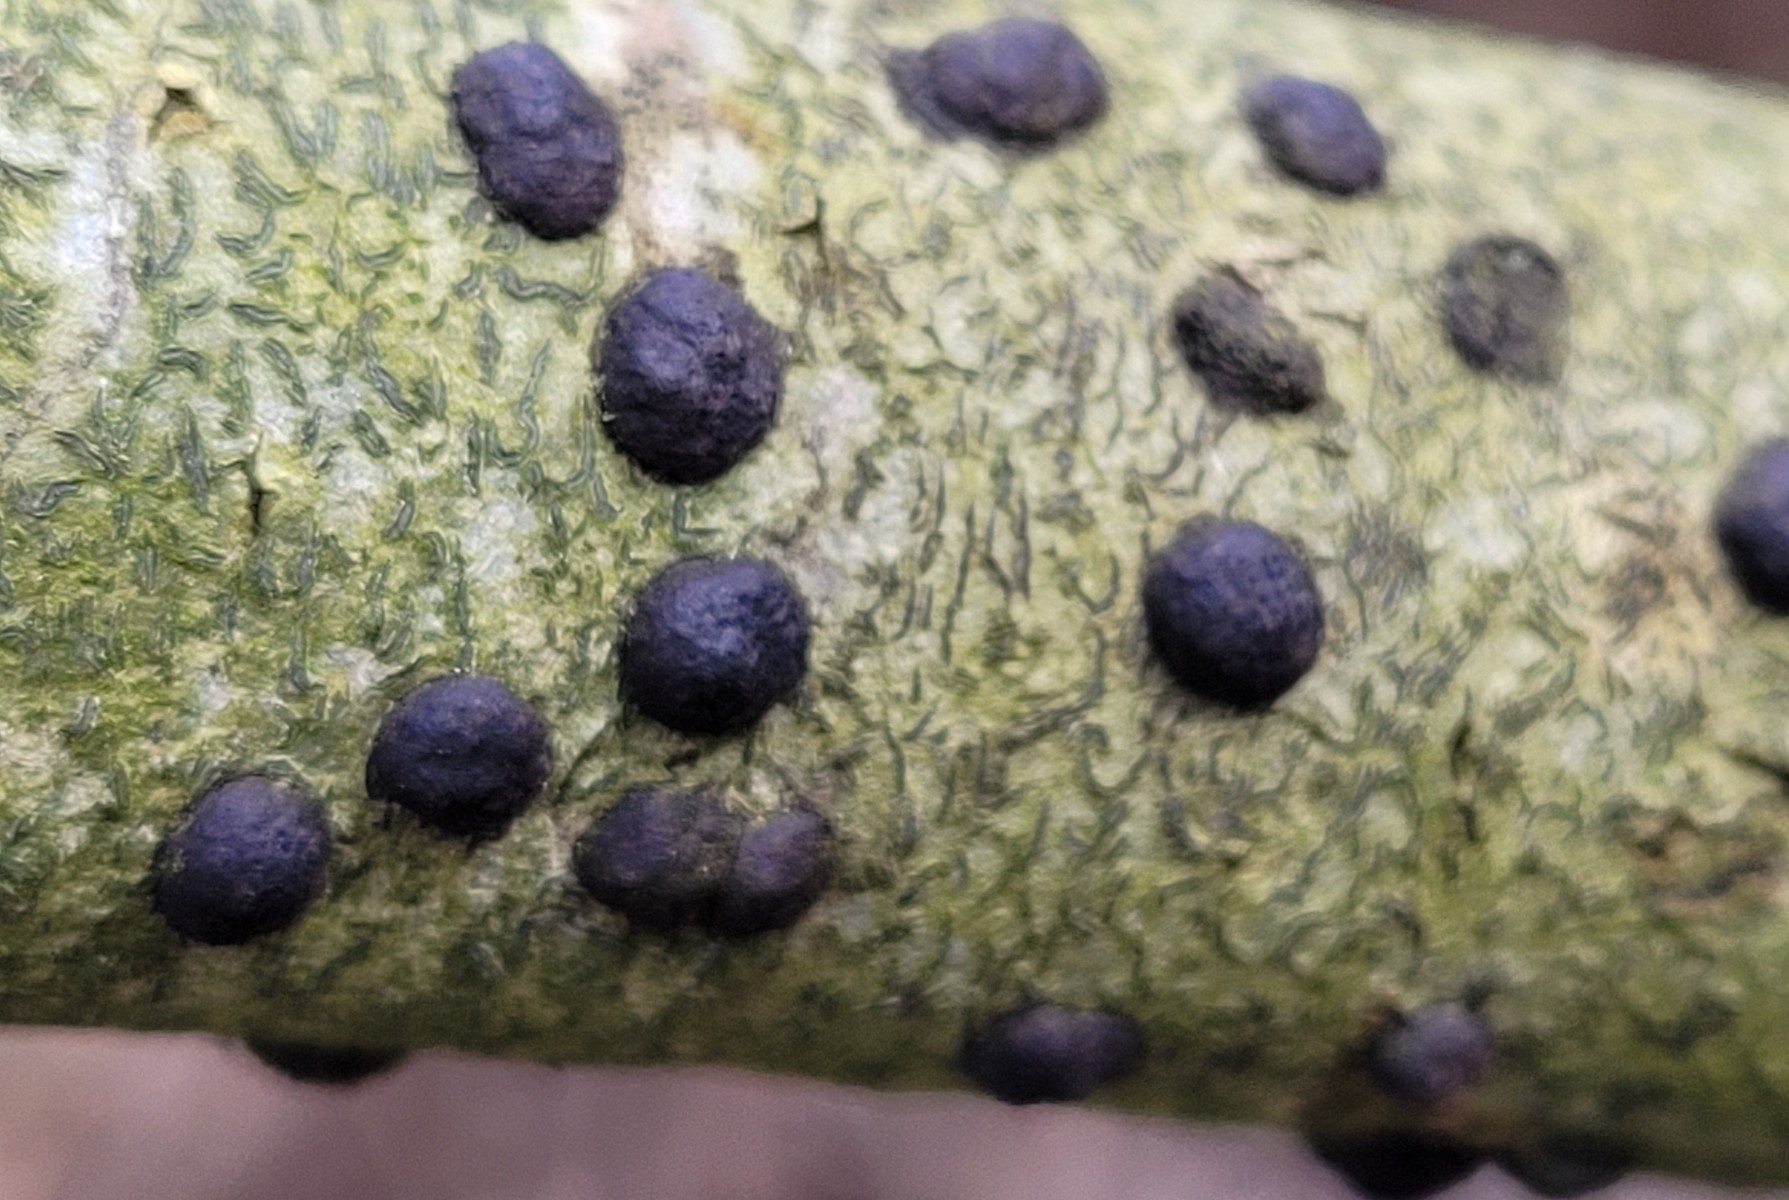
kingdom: Fungi
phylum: Ascomycota
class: Sordariomycetes
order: Xylariales
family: Hypoxylaceae
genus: Hypoxylon
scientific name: Hypoxylon fuscum
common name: kegleformet kulbær
